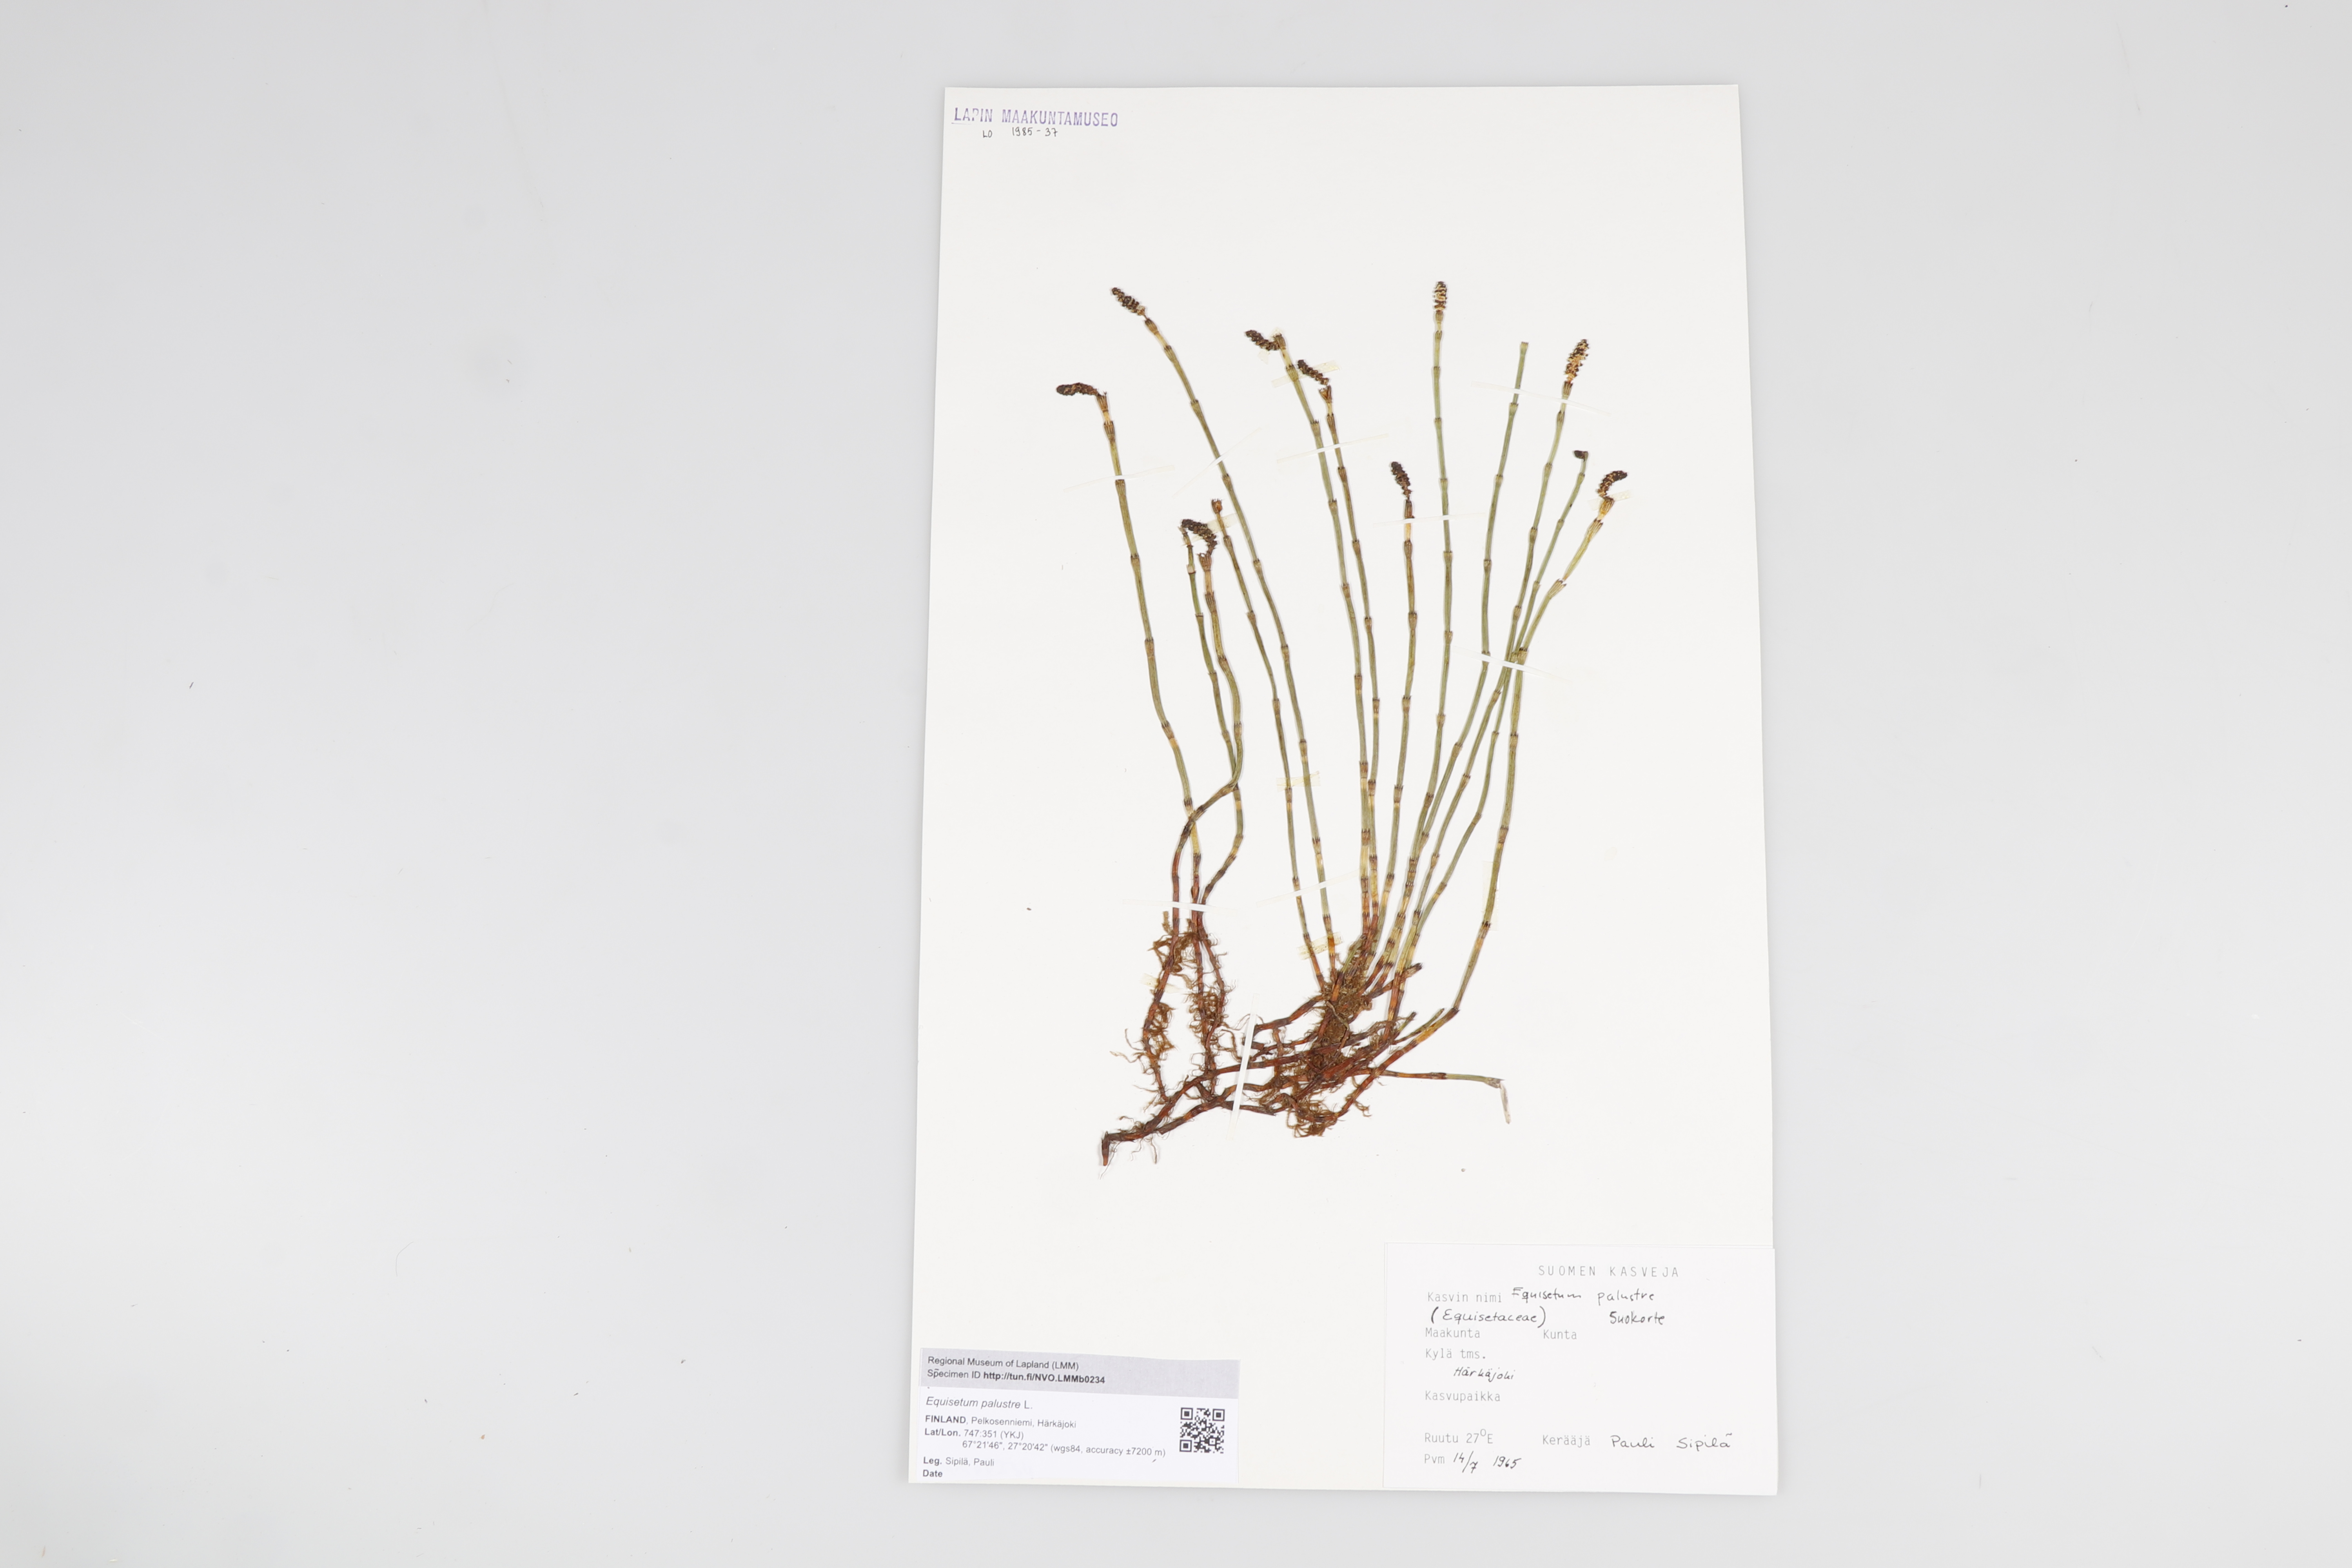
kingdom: Plantae
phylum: Tracheophyta
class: Polypodiopsida
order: Equisetales
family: Equisetaceae
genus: Equisetum
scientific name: Equisetum palustre
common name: Marsh horsetail
